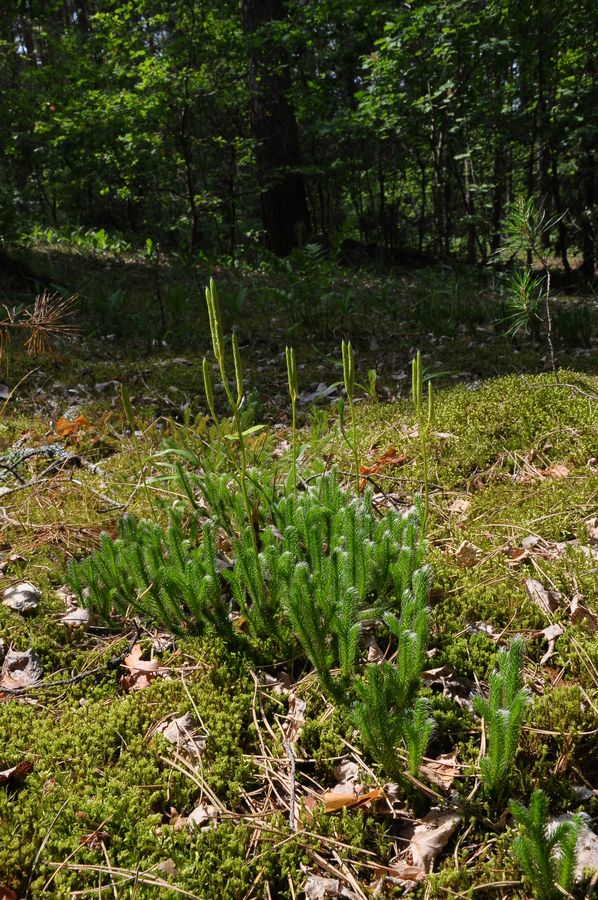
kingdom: Plantae
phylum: Tracheophyta
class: Lycopodiopsida
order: Lycopodiales
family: Lycopodiaceae
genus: Lycopodium
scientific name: Lycopodium clavatum
